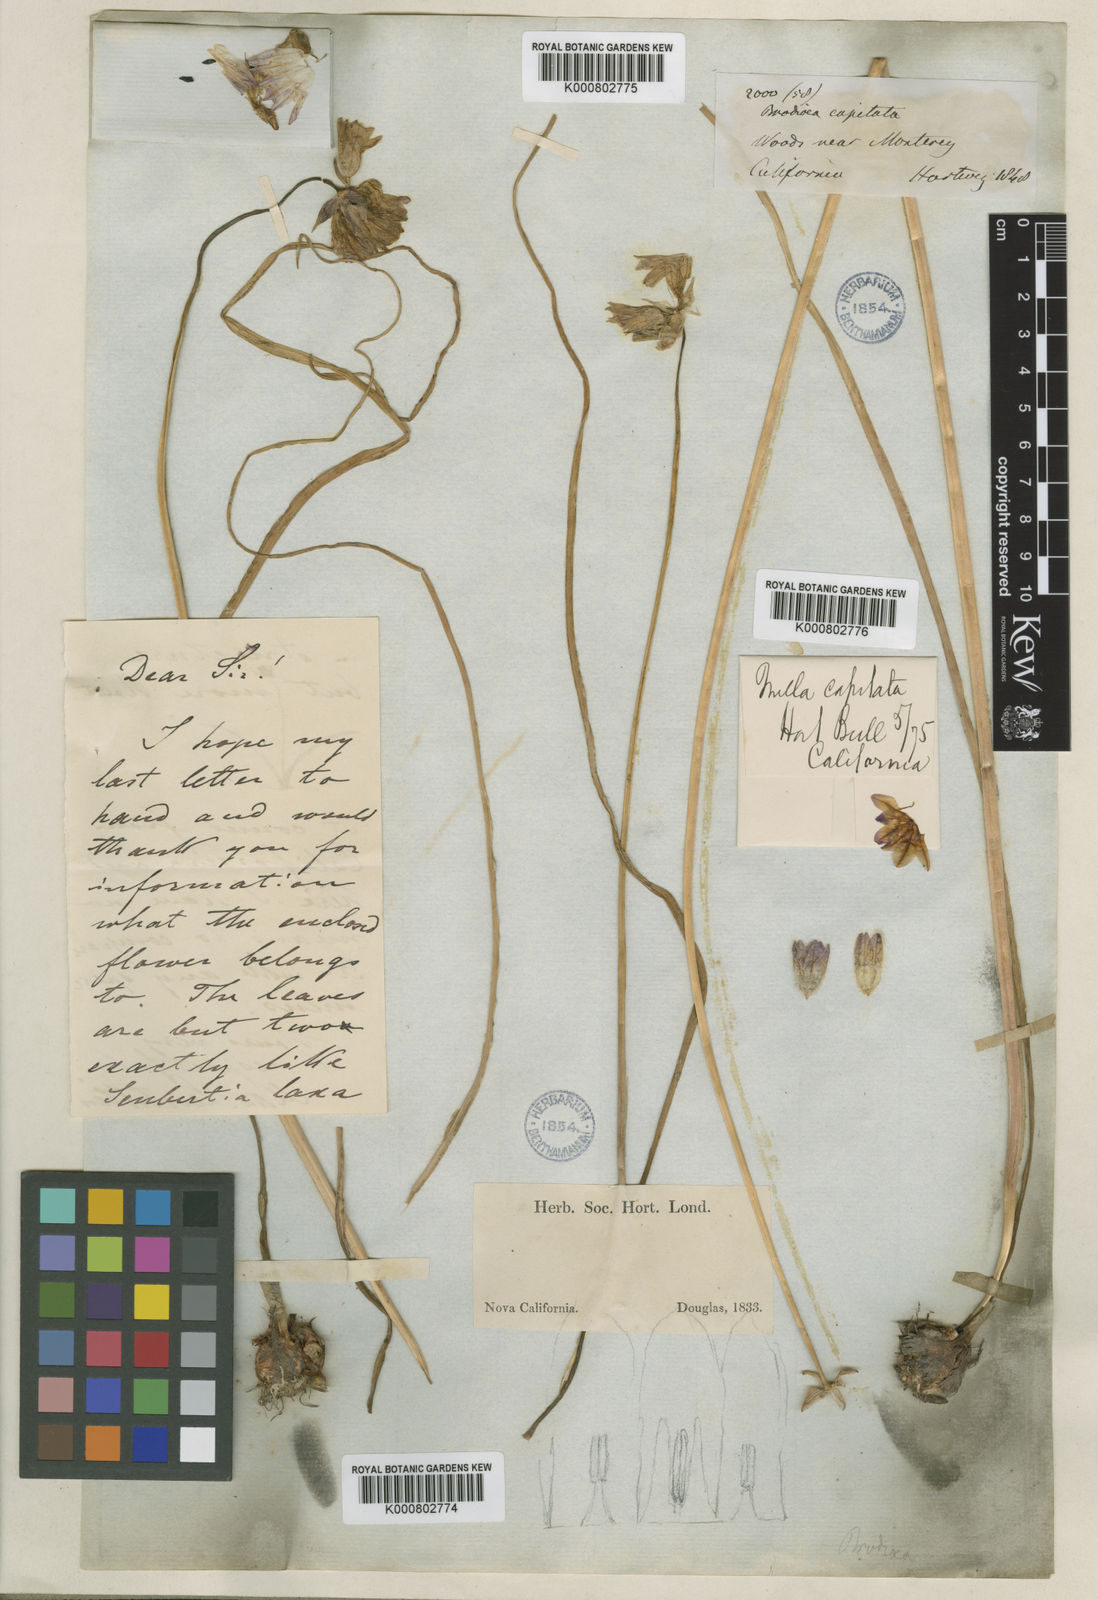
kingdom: Plantae
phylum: Tracheophyta
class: Liliopsida
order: Asparagales
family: Asparagaceae
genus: Dichelostemma
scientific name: Dichelostemma congestum
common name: Fork-tooth ookow
